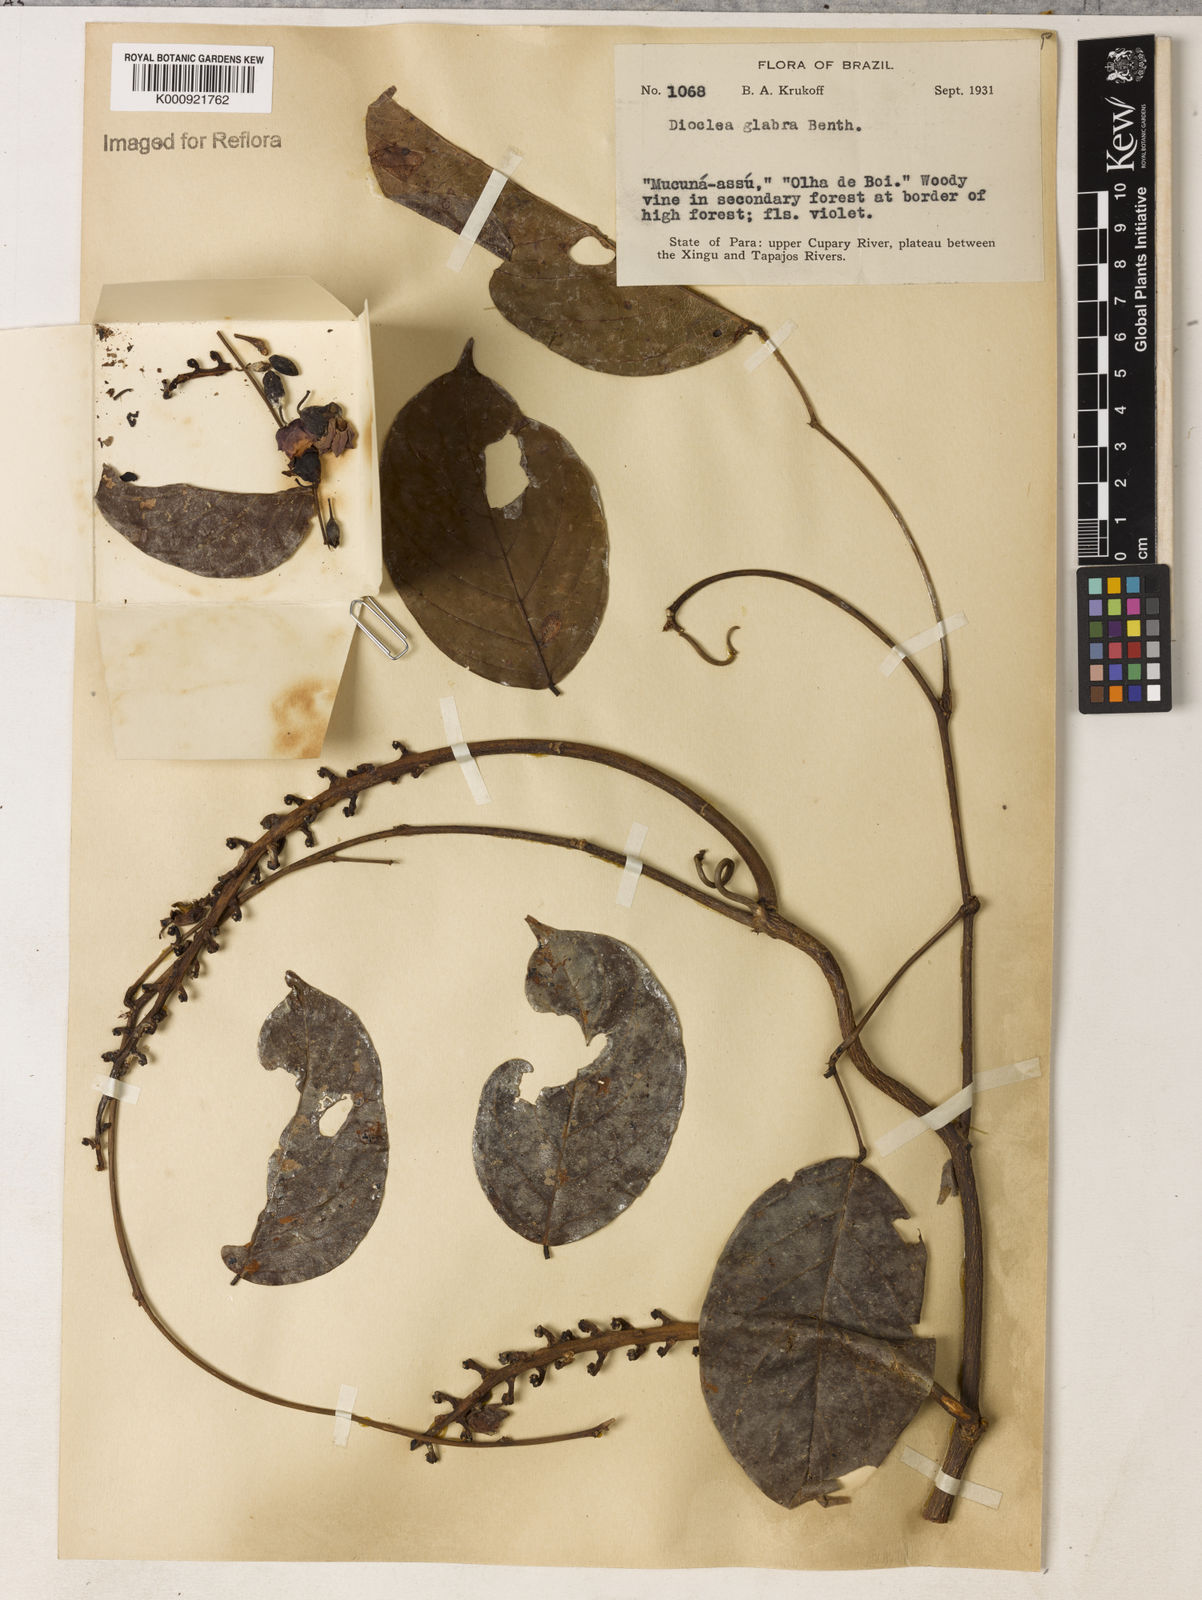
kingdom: Plantae
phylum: Tracheophyta
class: Magnoliopsida
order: Fabales
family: Fabaceae
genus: Macropsychanthus
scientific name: Macropsychanthus glaber
